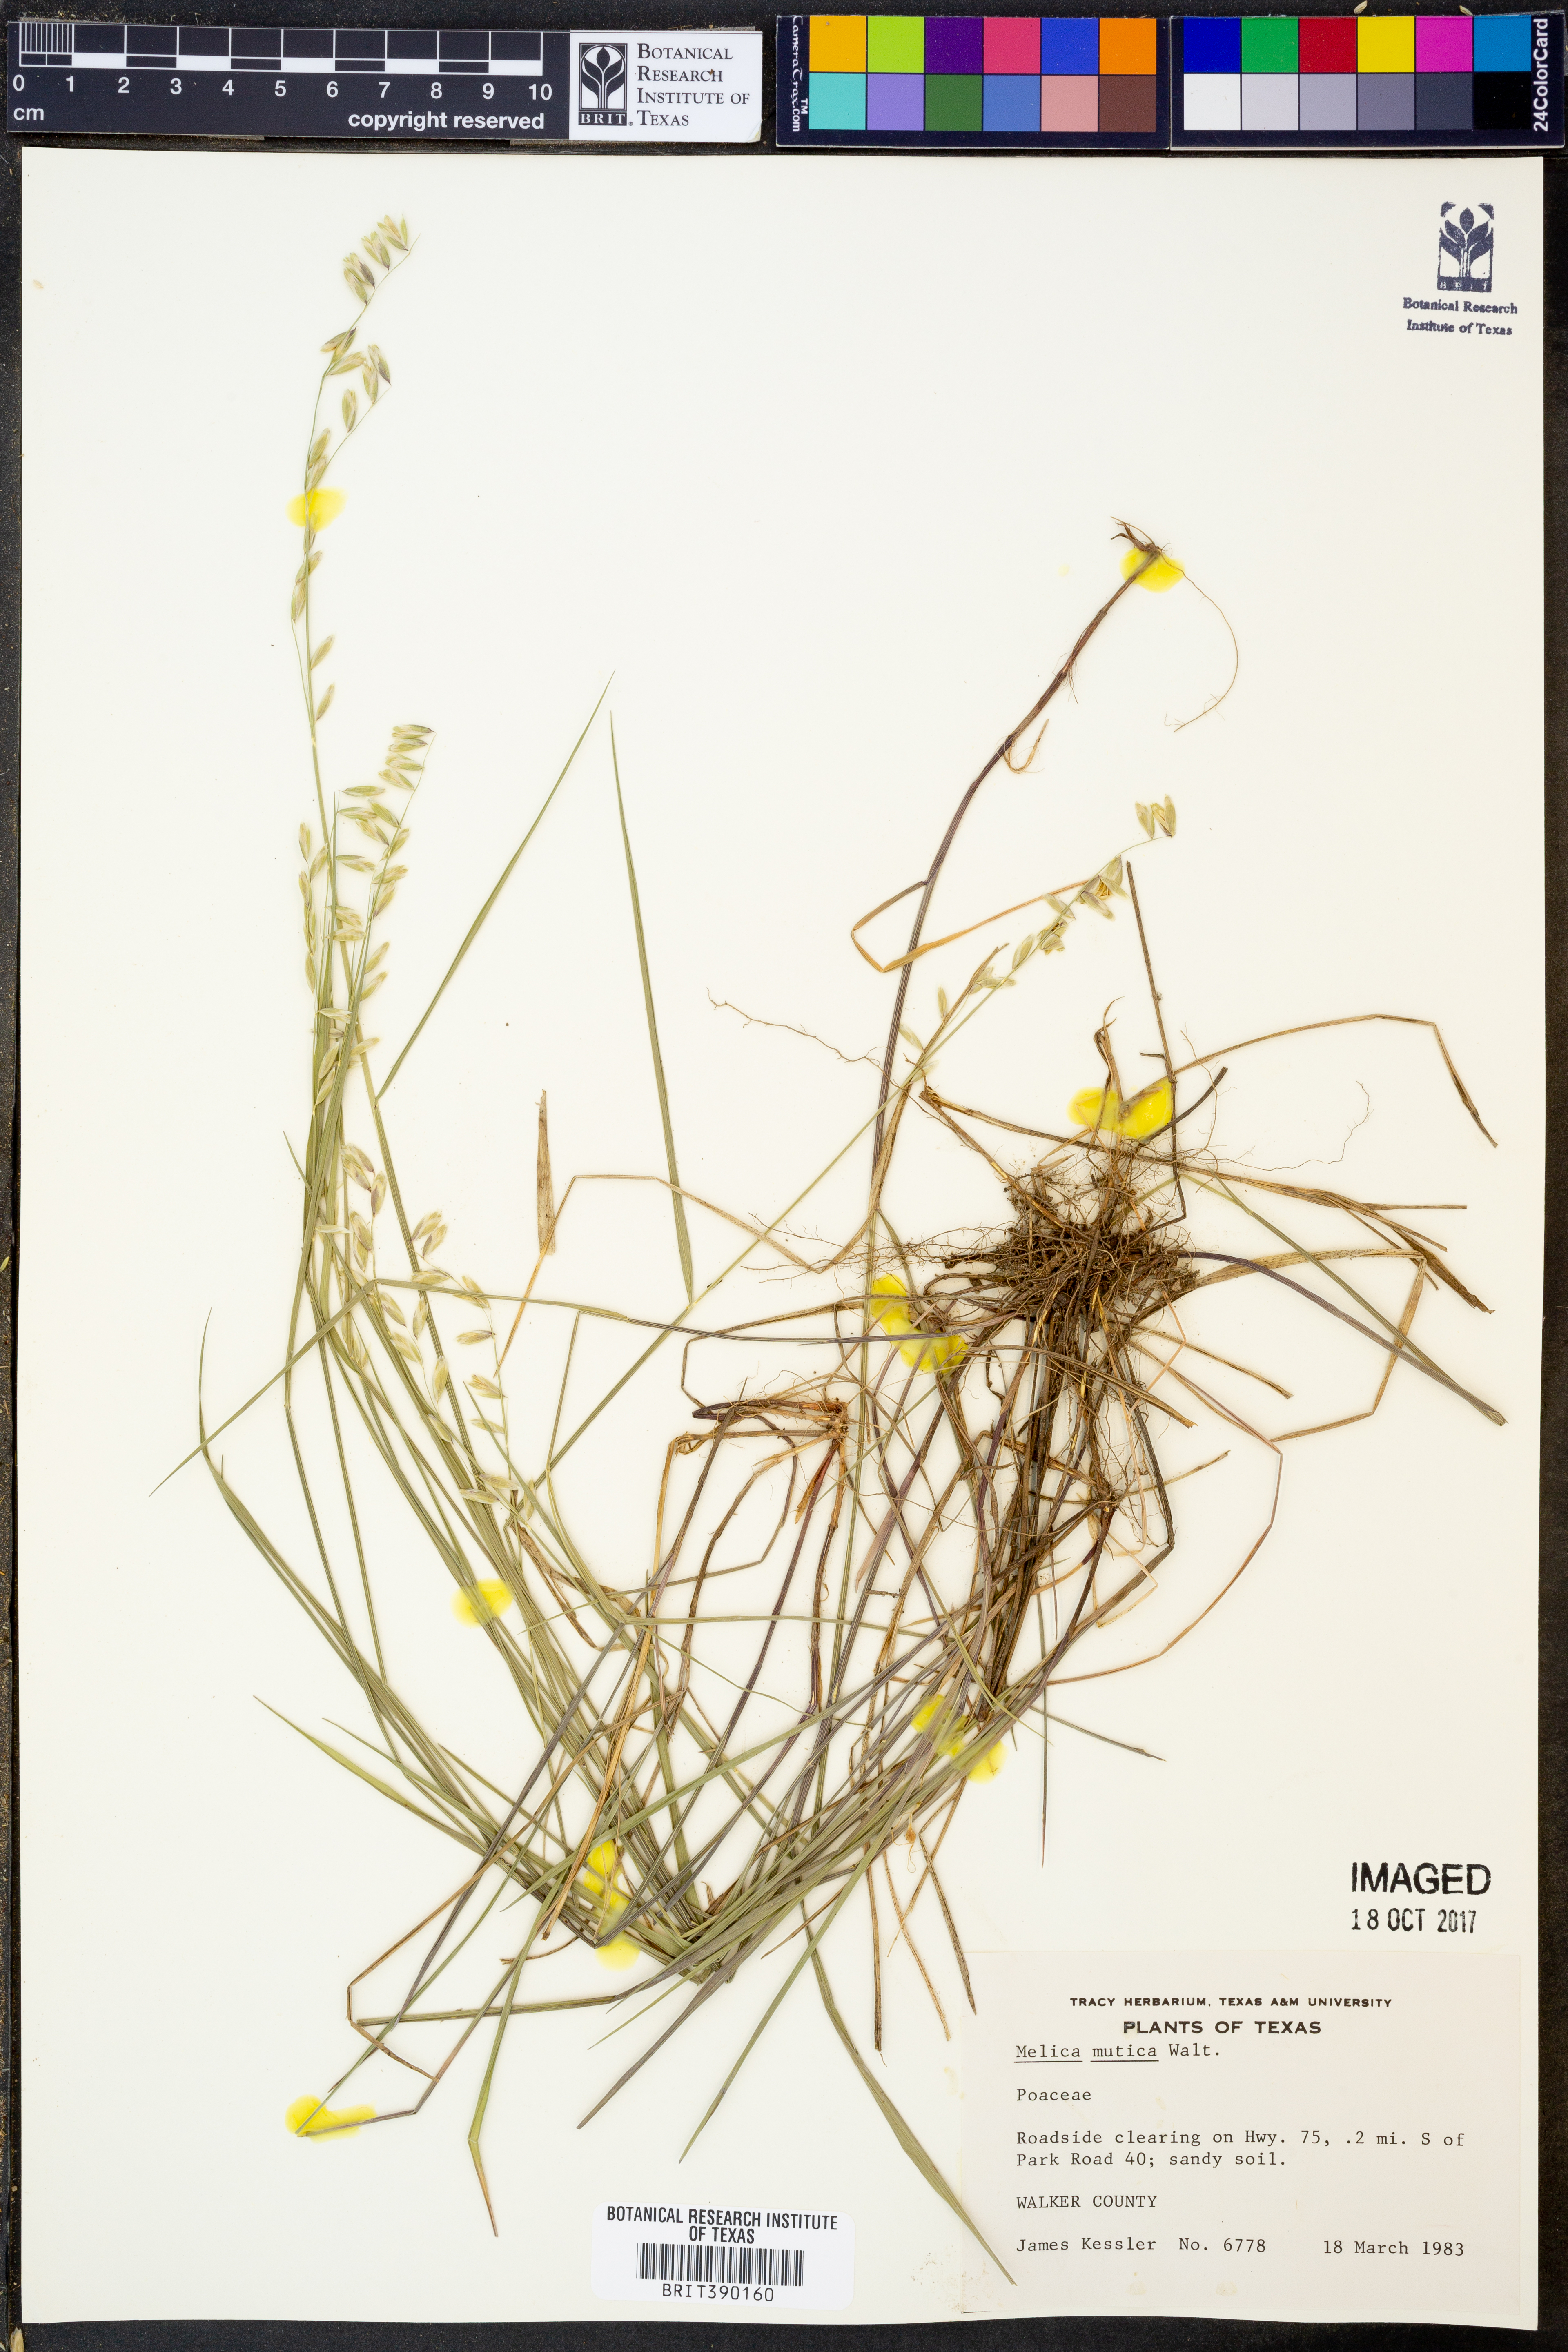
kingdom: Plantae
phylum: Tracheophyta
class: Liliopsida
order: Poales
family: Poaceae
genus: Melica
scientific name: Melica mutica
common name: Two-flower melic
